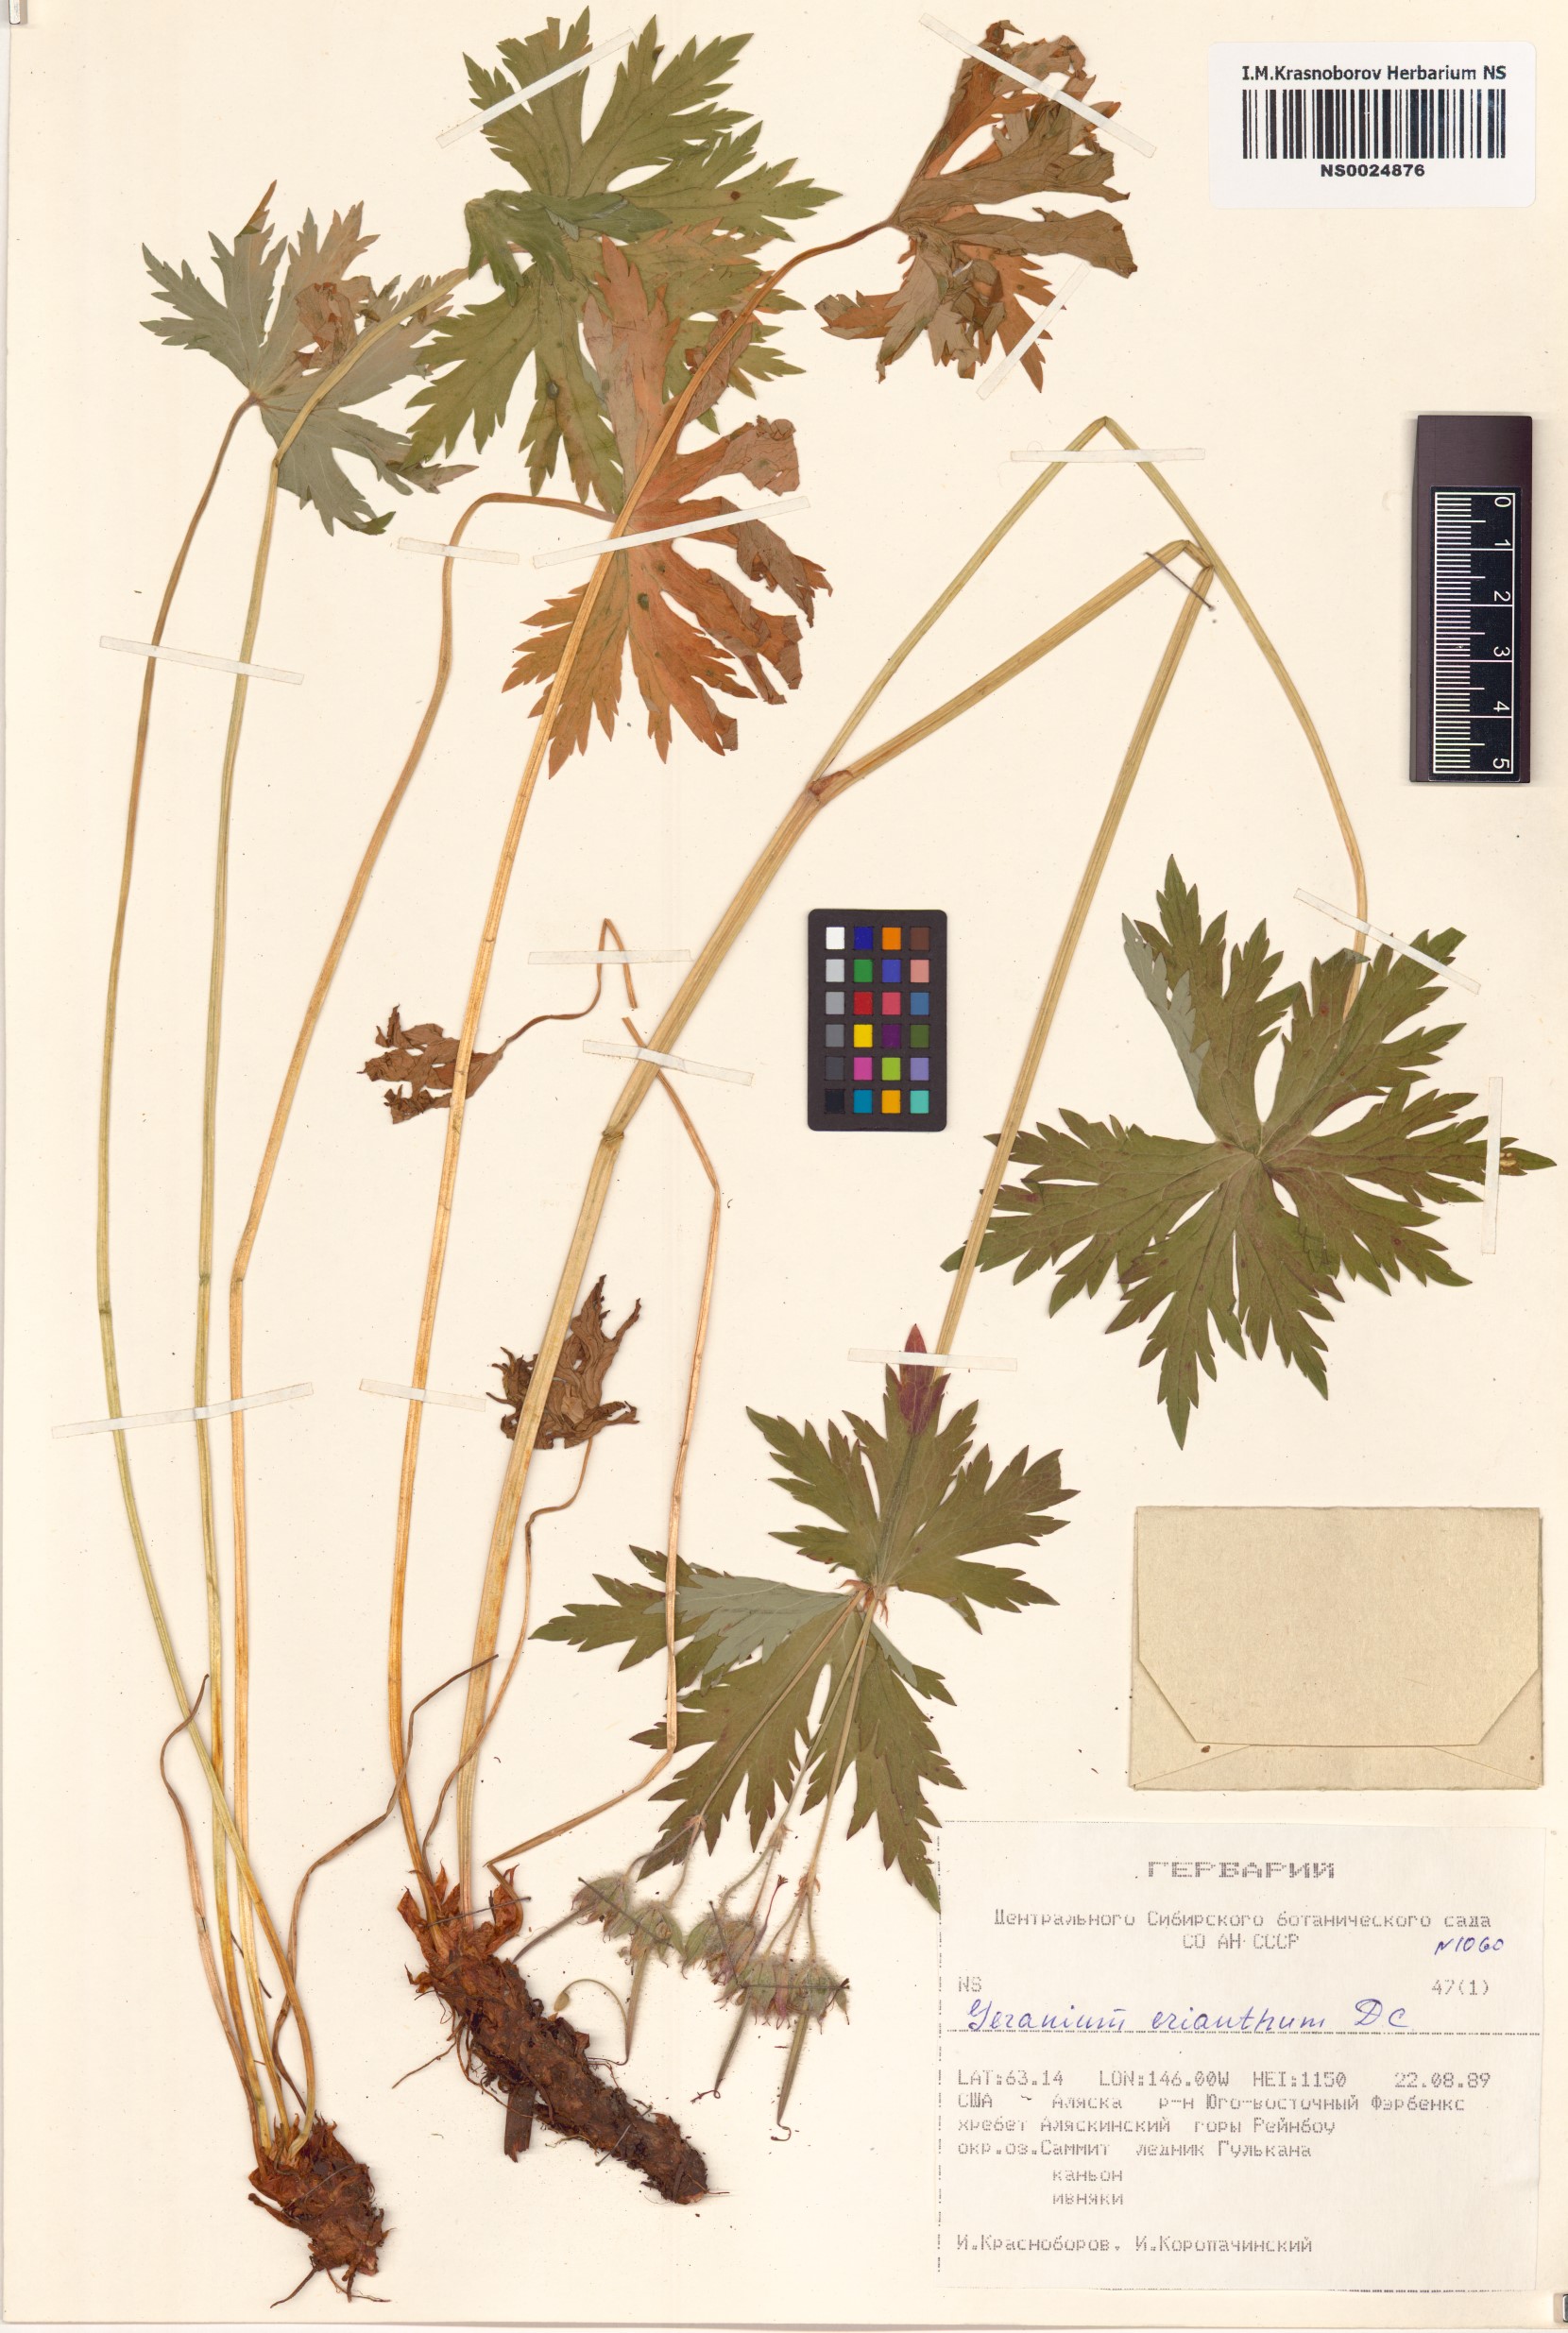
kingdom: Plantae
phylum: Tracheophyta
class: Magnoliopsida
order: Geraniales
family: Geraniaceae
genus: Geranium
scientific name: Geranium erianthum
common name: Northern crane's-bill
